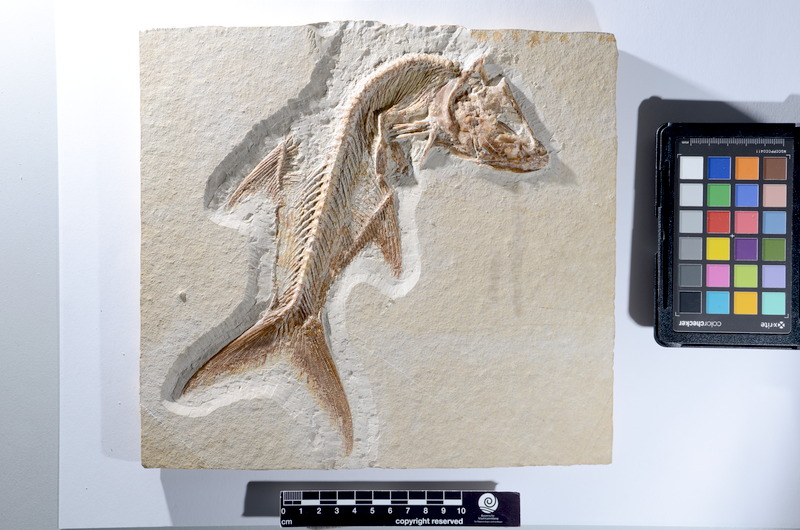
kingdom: Animalia
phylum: Chordata
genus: Pachythrissops
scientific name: Pachythrissops propterus
